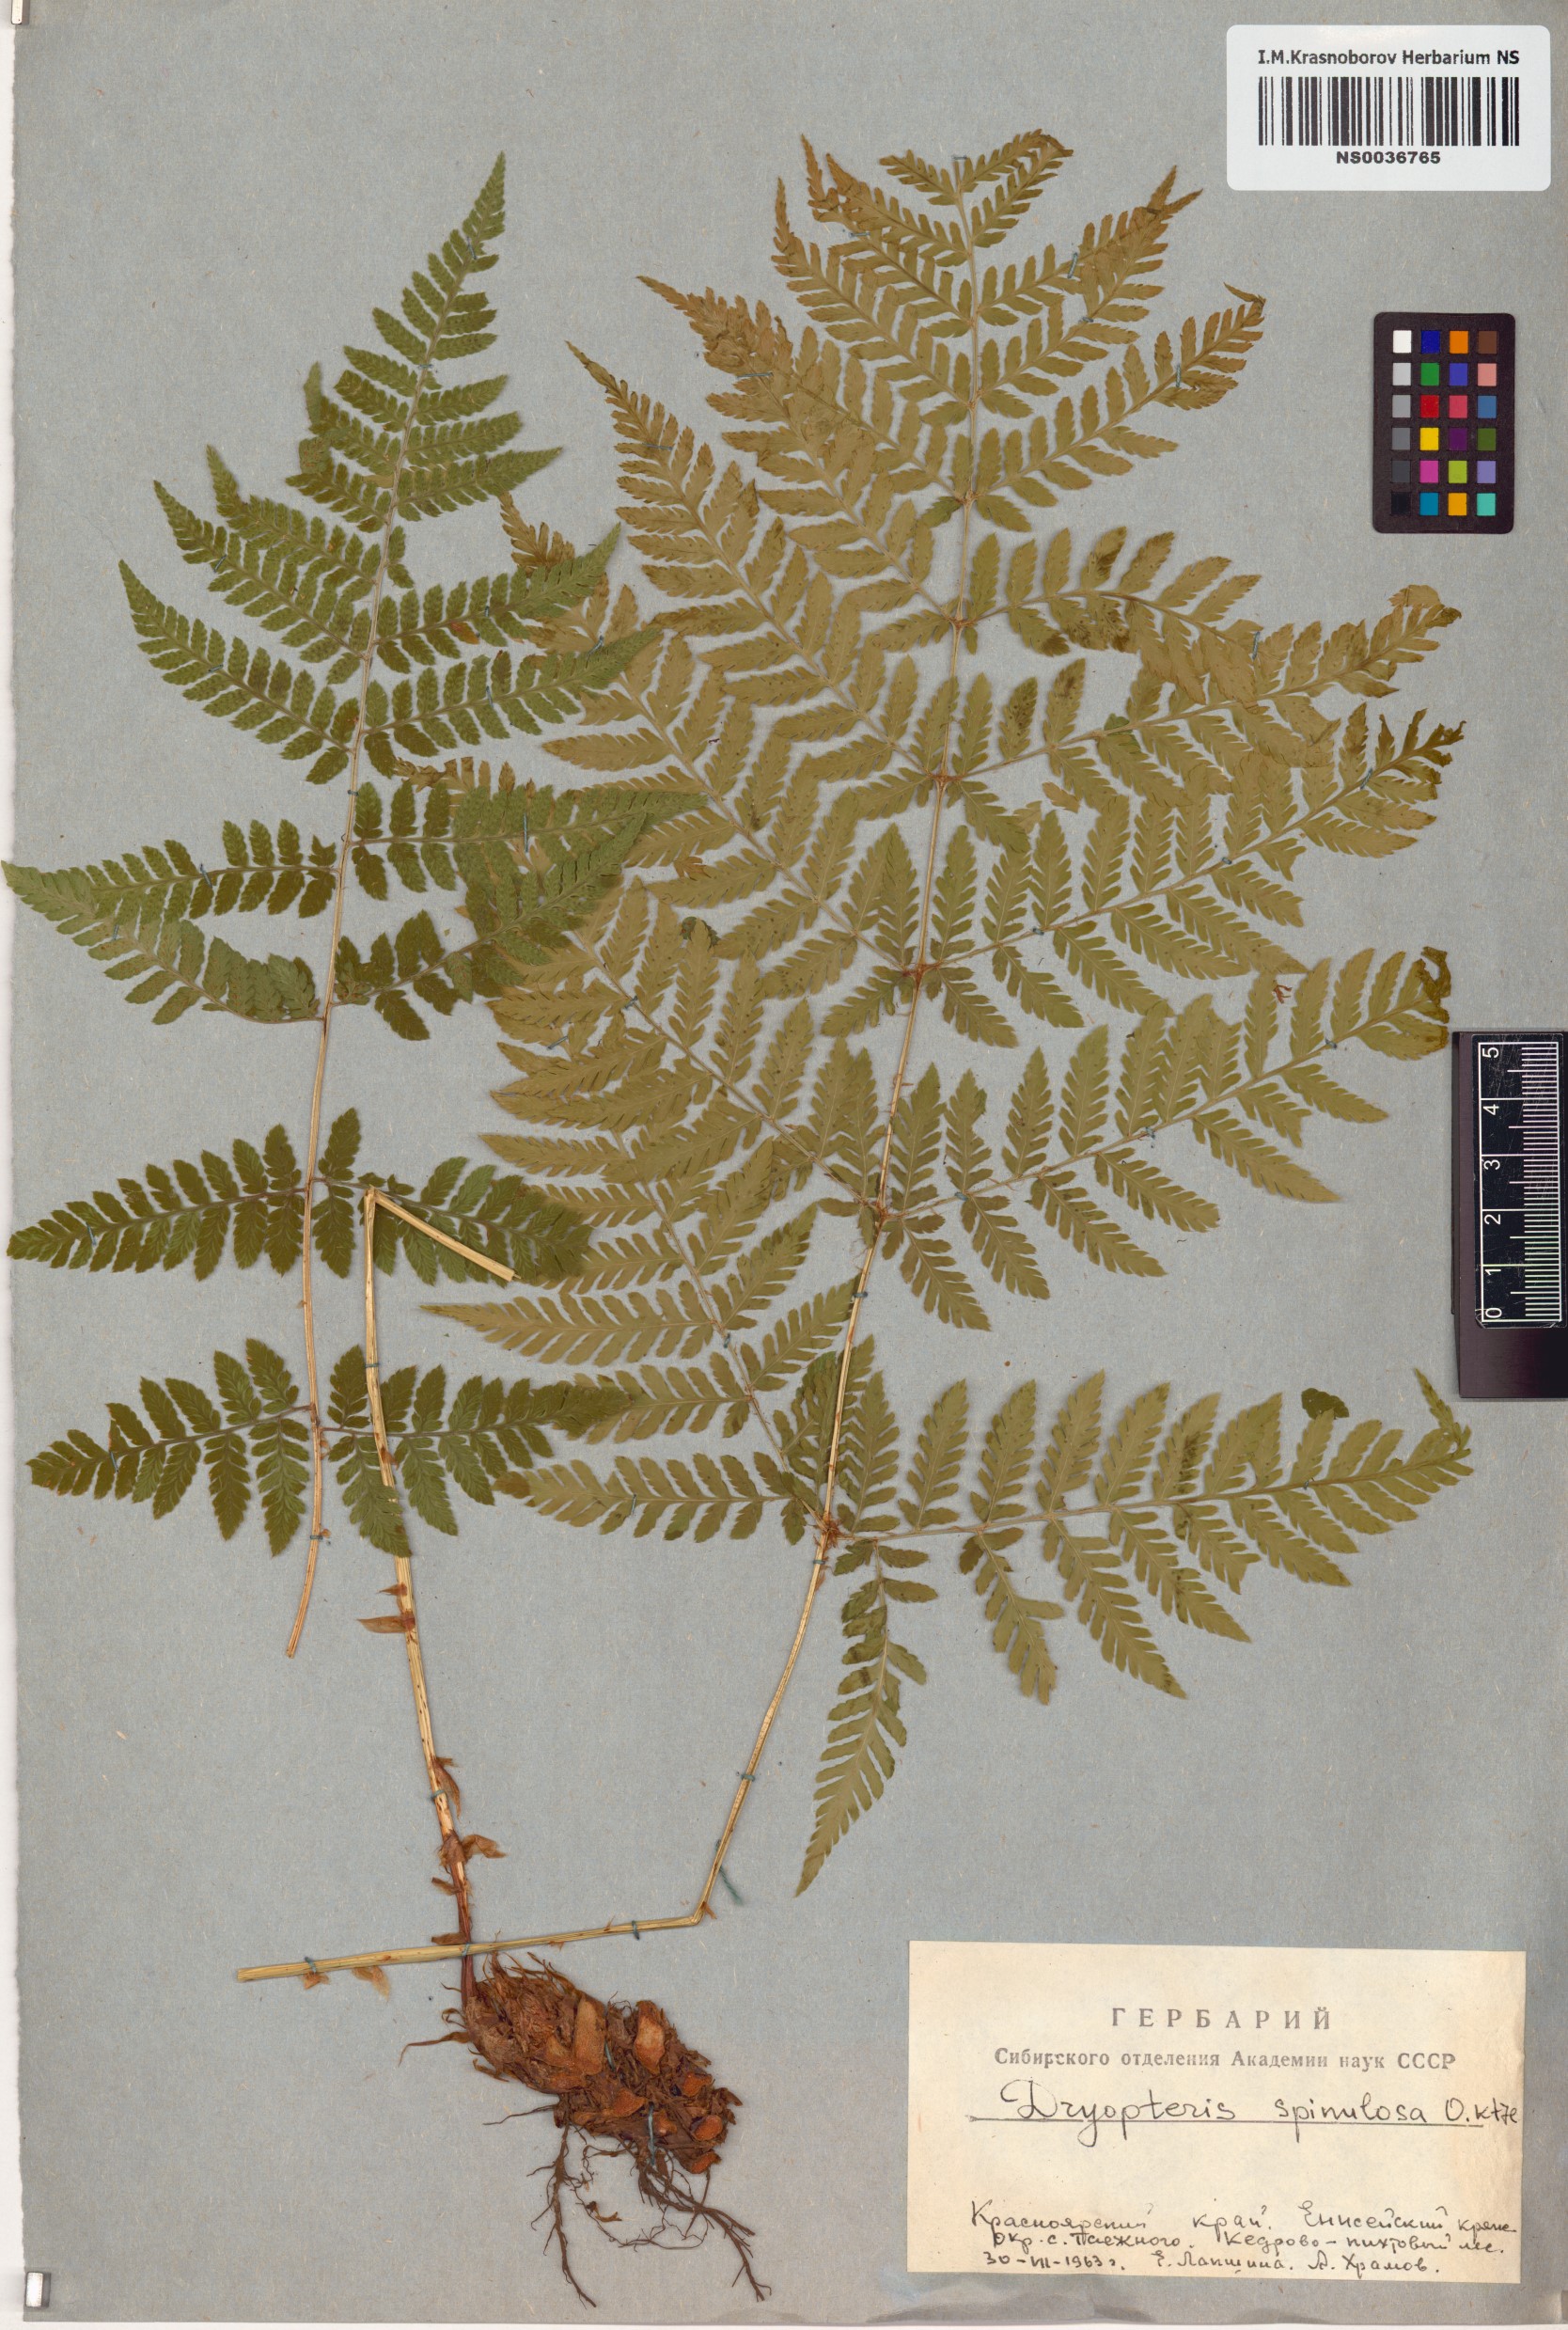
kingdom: Plantae
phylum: Tracheophyta
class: Polypodiopsida
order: Polypodiales
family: Dryopteridaceae
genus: Dryopteris
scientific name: Dryopteris carthusiana
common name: Narrow buckler-fern
